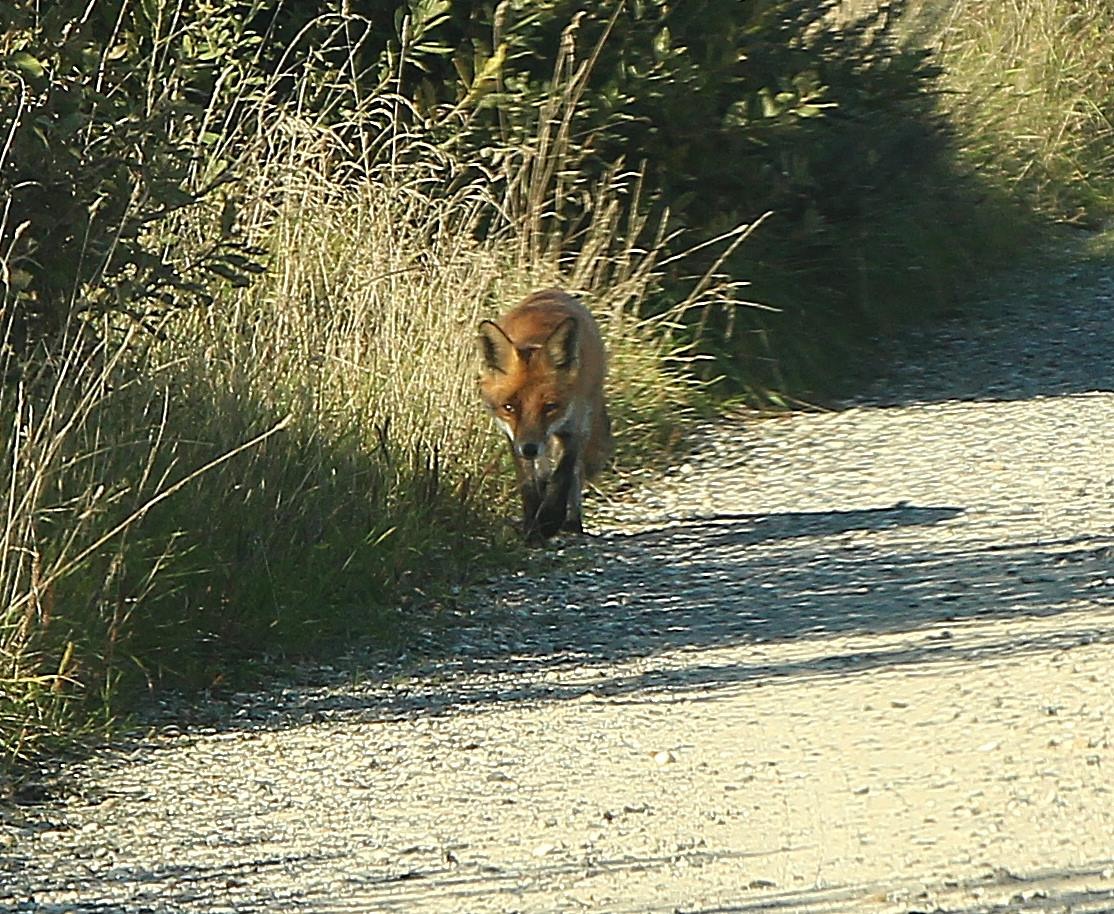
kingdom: Animalia
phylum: Chordata
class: Mammalia
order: Carnivora
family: Canidae
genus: Vulpes
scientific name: Vulpes vulpes
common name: Ræv
